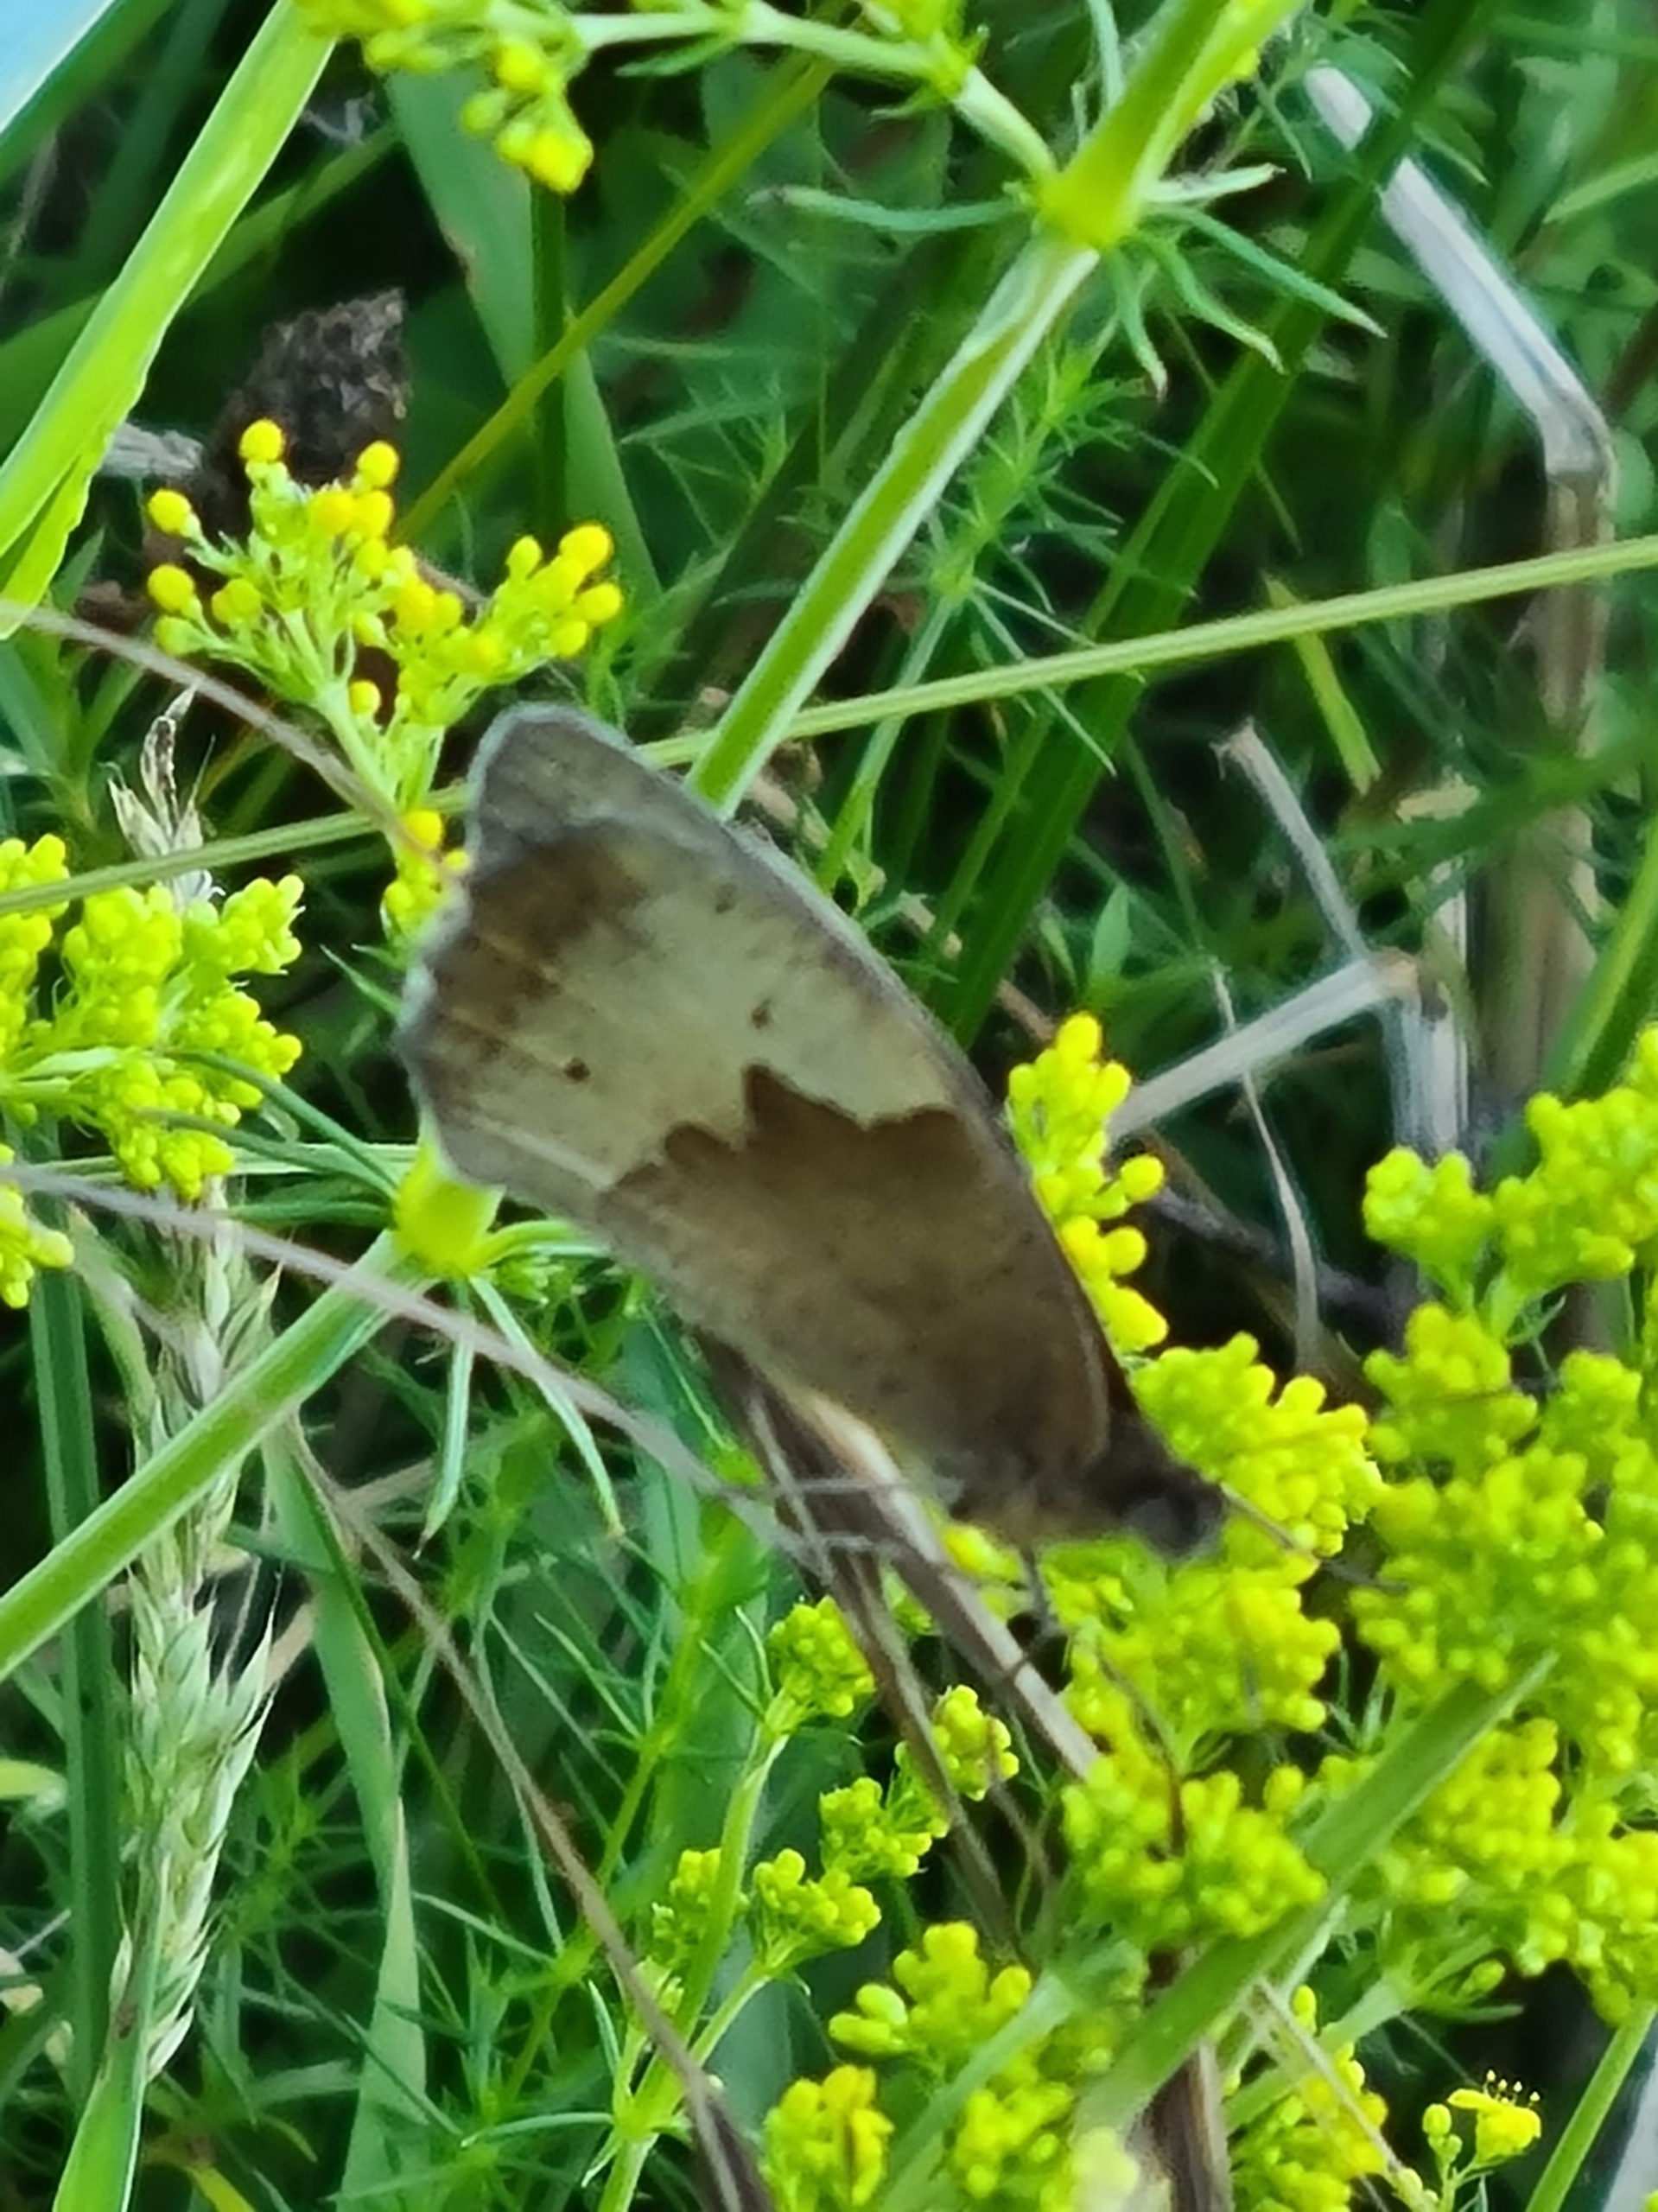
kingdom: Animalia
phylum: Arthropoda
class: Insecta
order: Lepidoptera
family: Nymphalidae
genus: Maniola
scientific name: Maniola jurtina
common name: Græsrandøje
